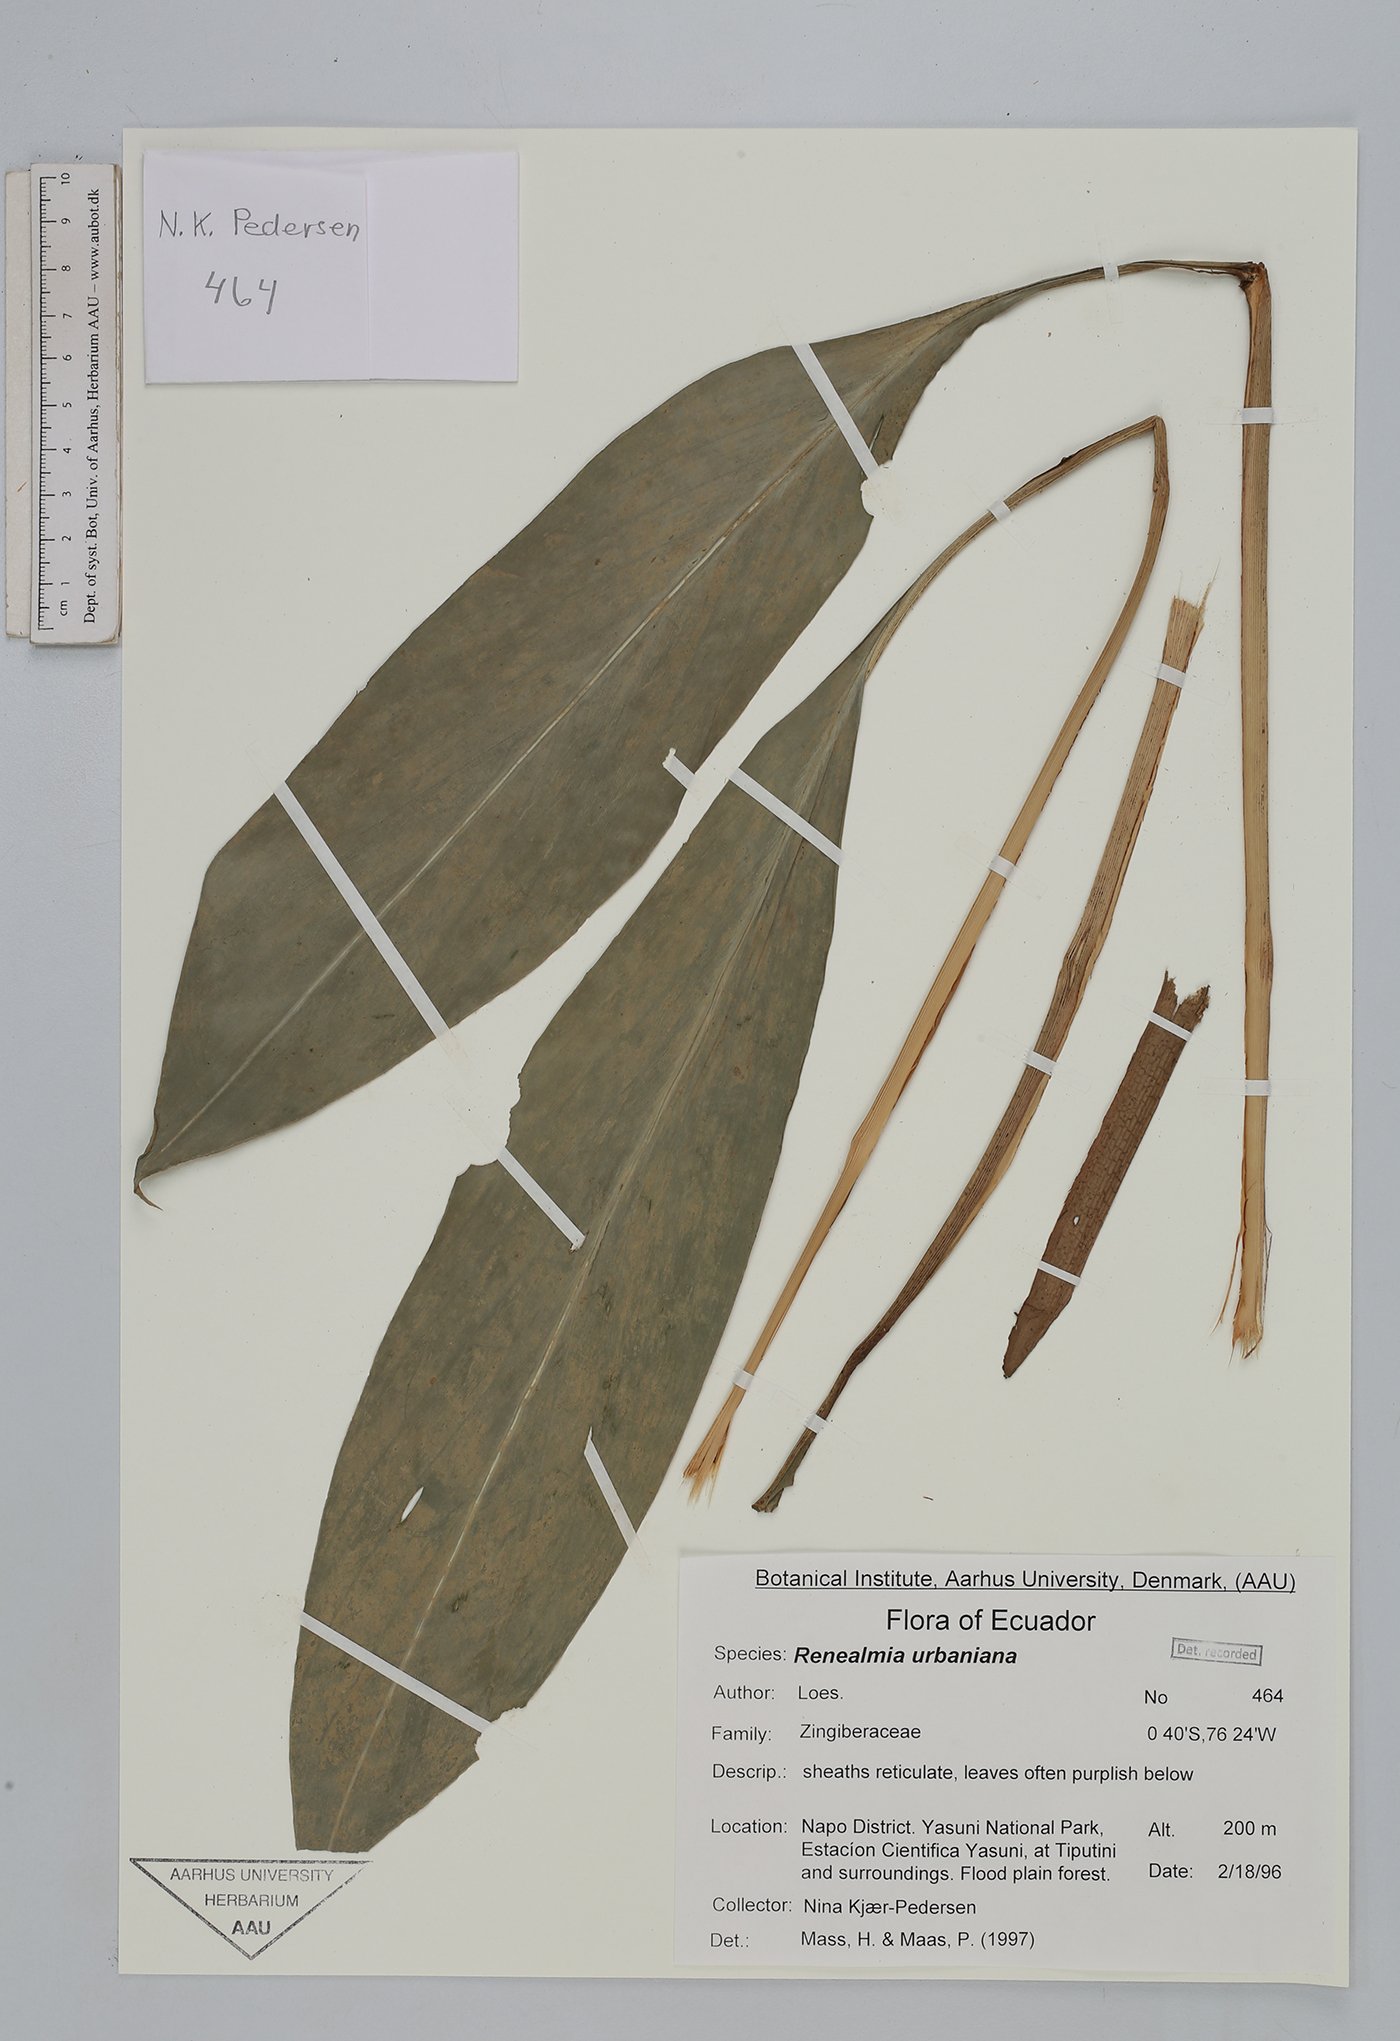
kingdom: Plantae
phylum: Tracheophyta
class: Liliopsida
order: Zingiberales
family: Zingiberaceae
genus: Renealmia
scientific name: Renealmia urbaniana
